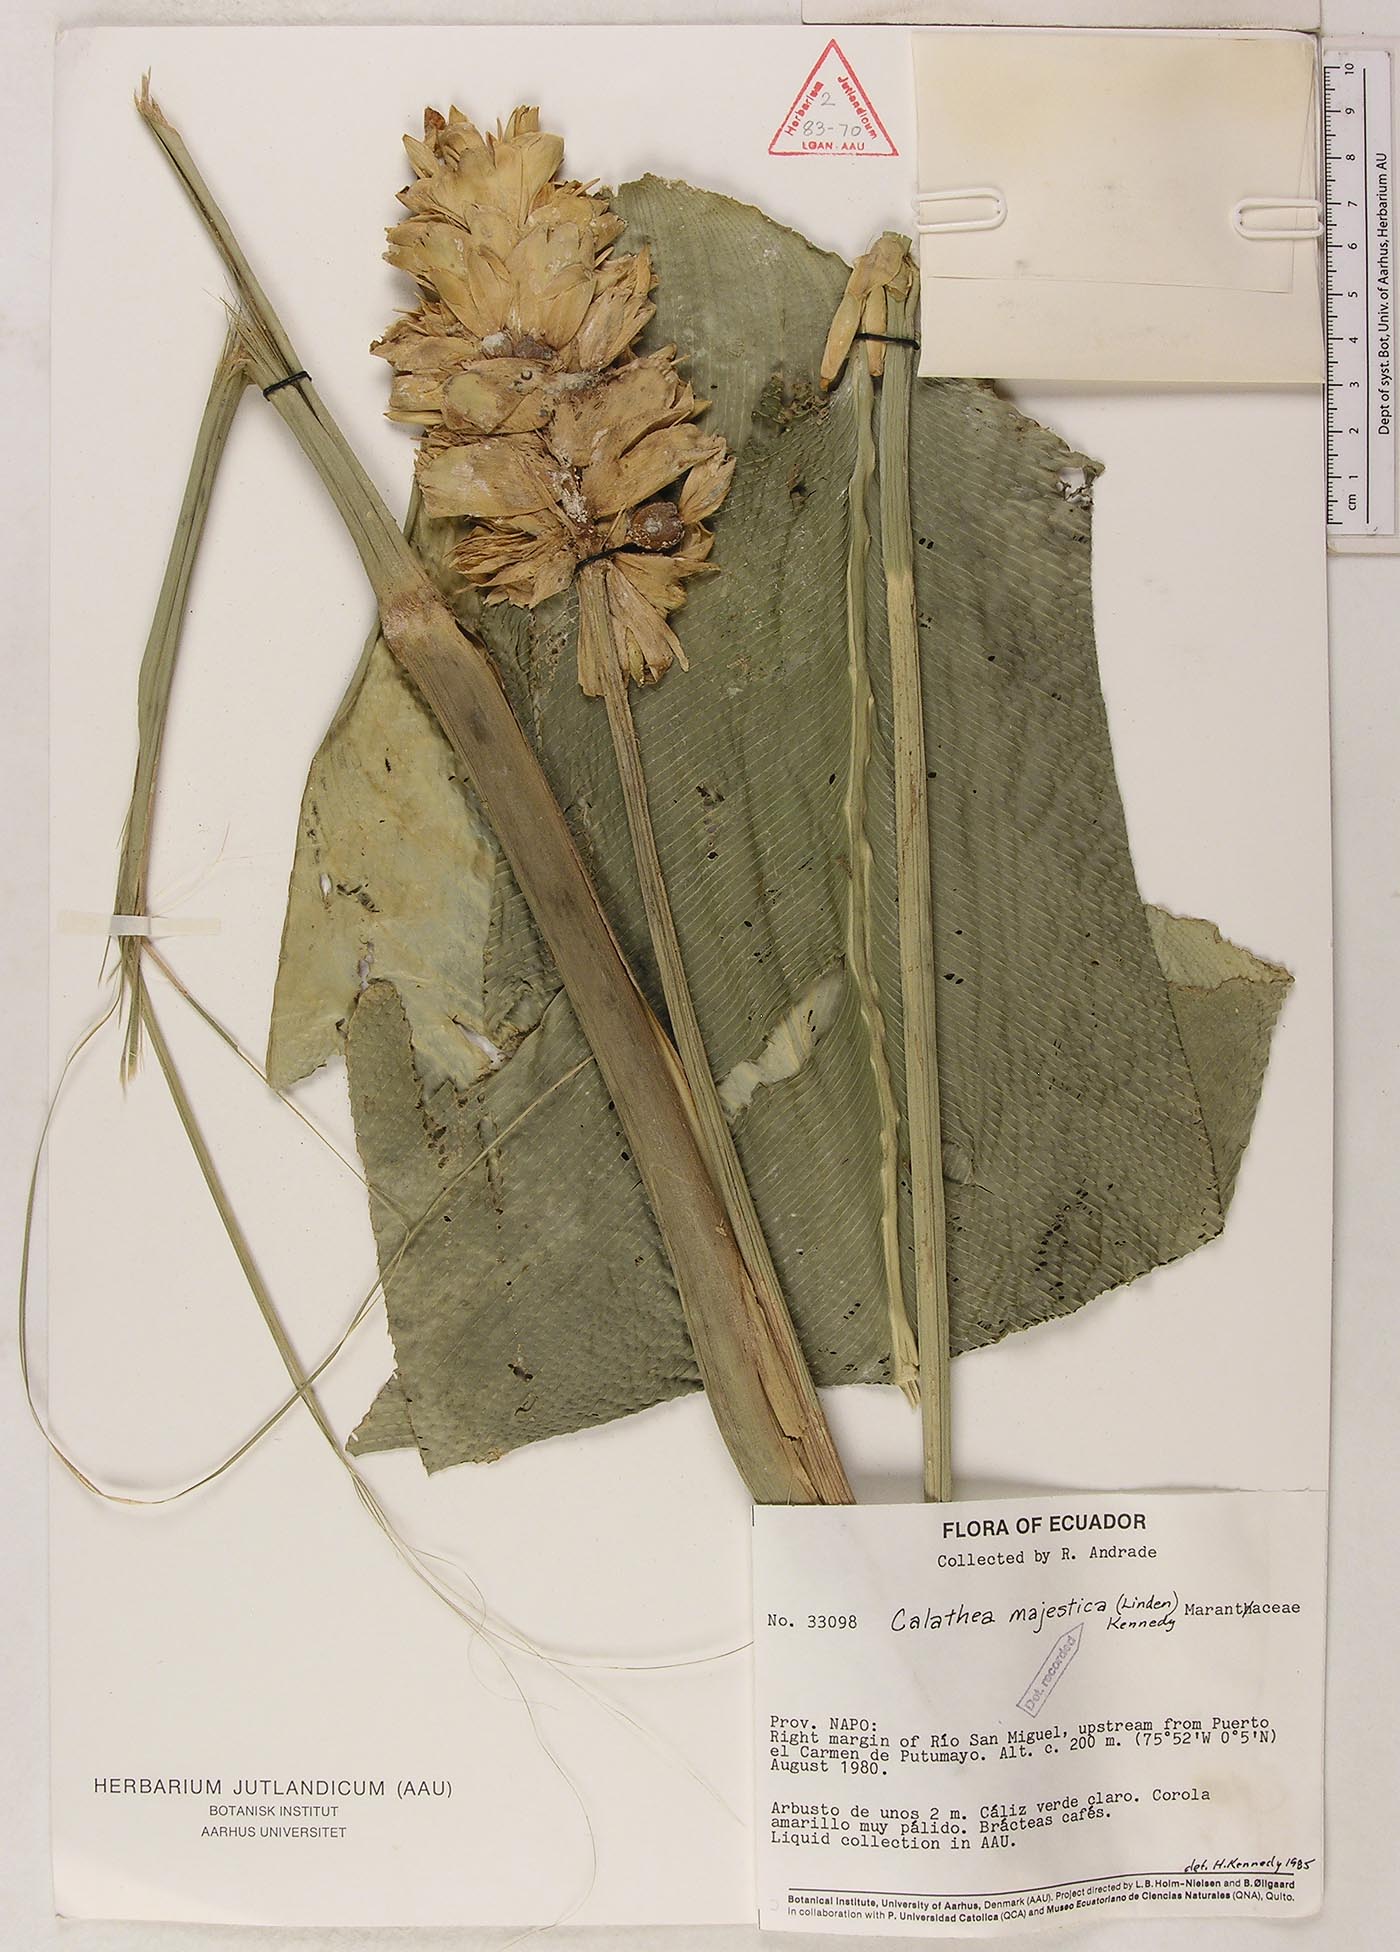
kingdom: Plantae
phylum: Tracheophyta
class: Liliopsida
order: Zingiberales
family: Marantaceae
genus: Goeppertia
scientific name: Goeppertia majestica
